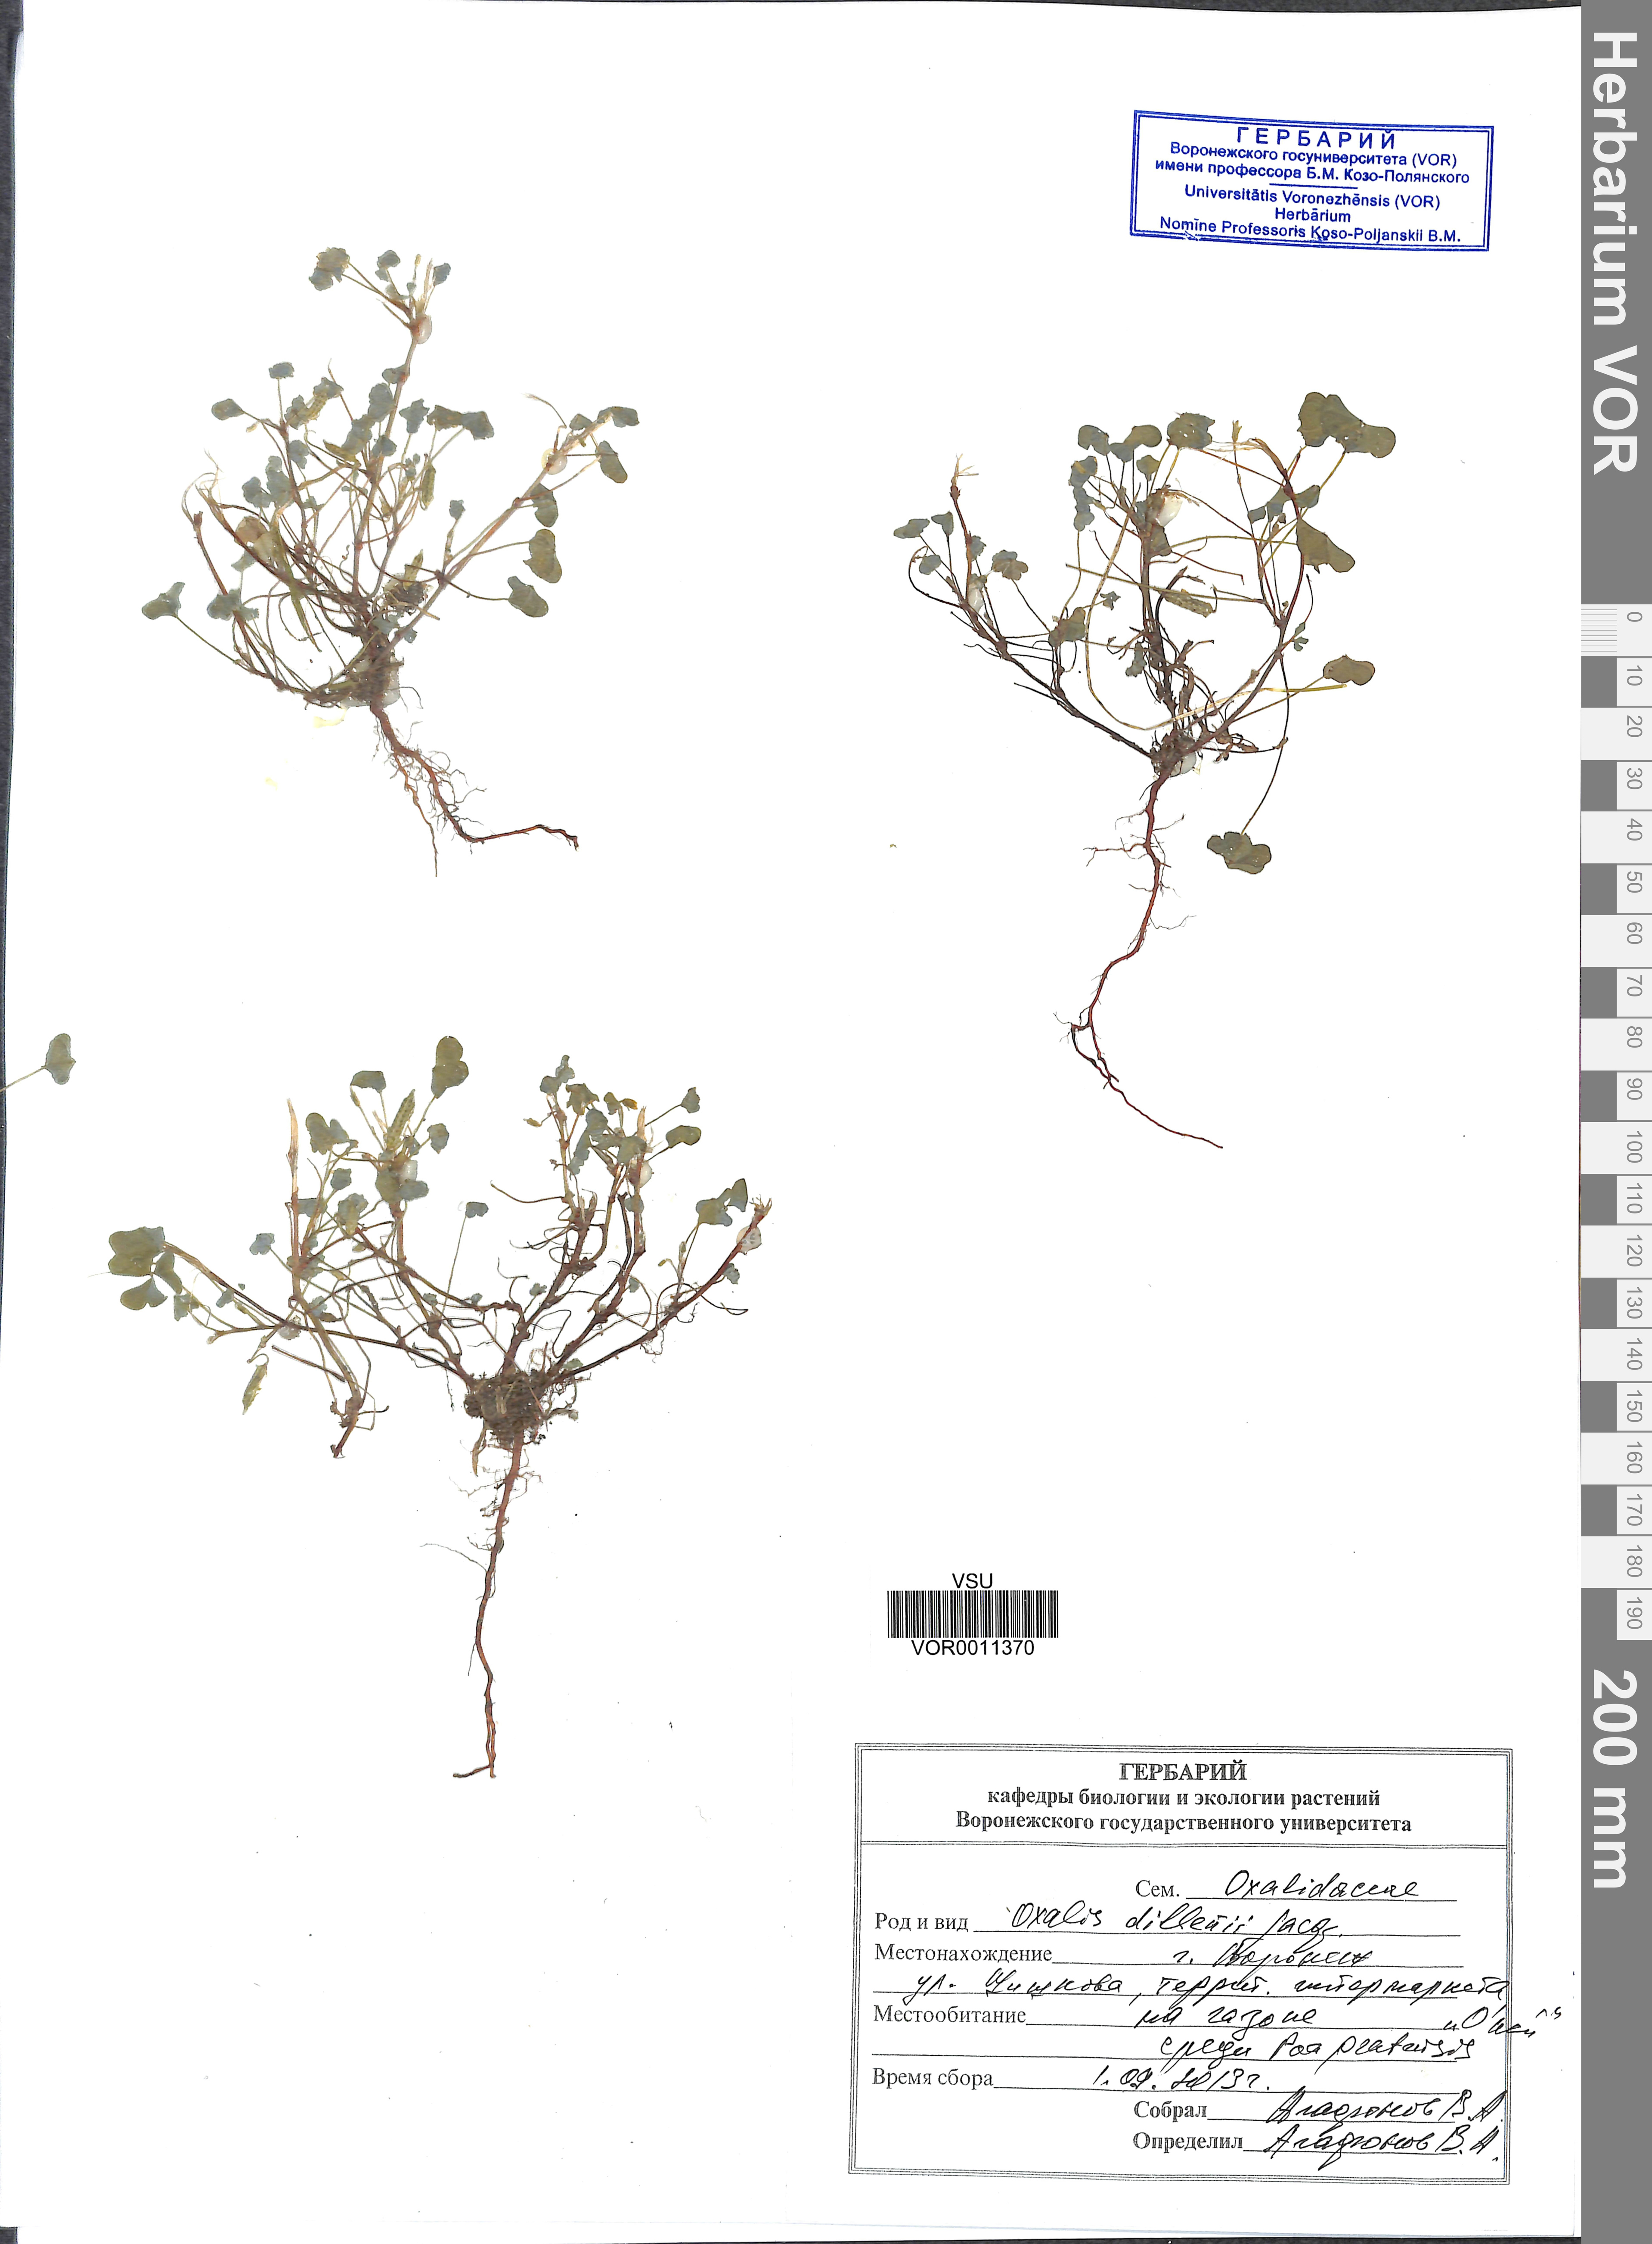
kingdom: Plantae
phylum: Tracheophyta
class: Magnoliopsida
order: Oxalidales
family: Oxalidaceae
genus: Oxalis
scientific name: Oxalis dillenii
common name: Sussex yellow-sorrel
